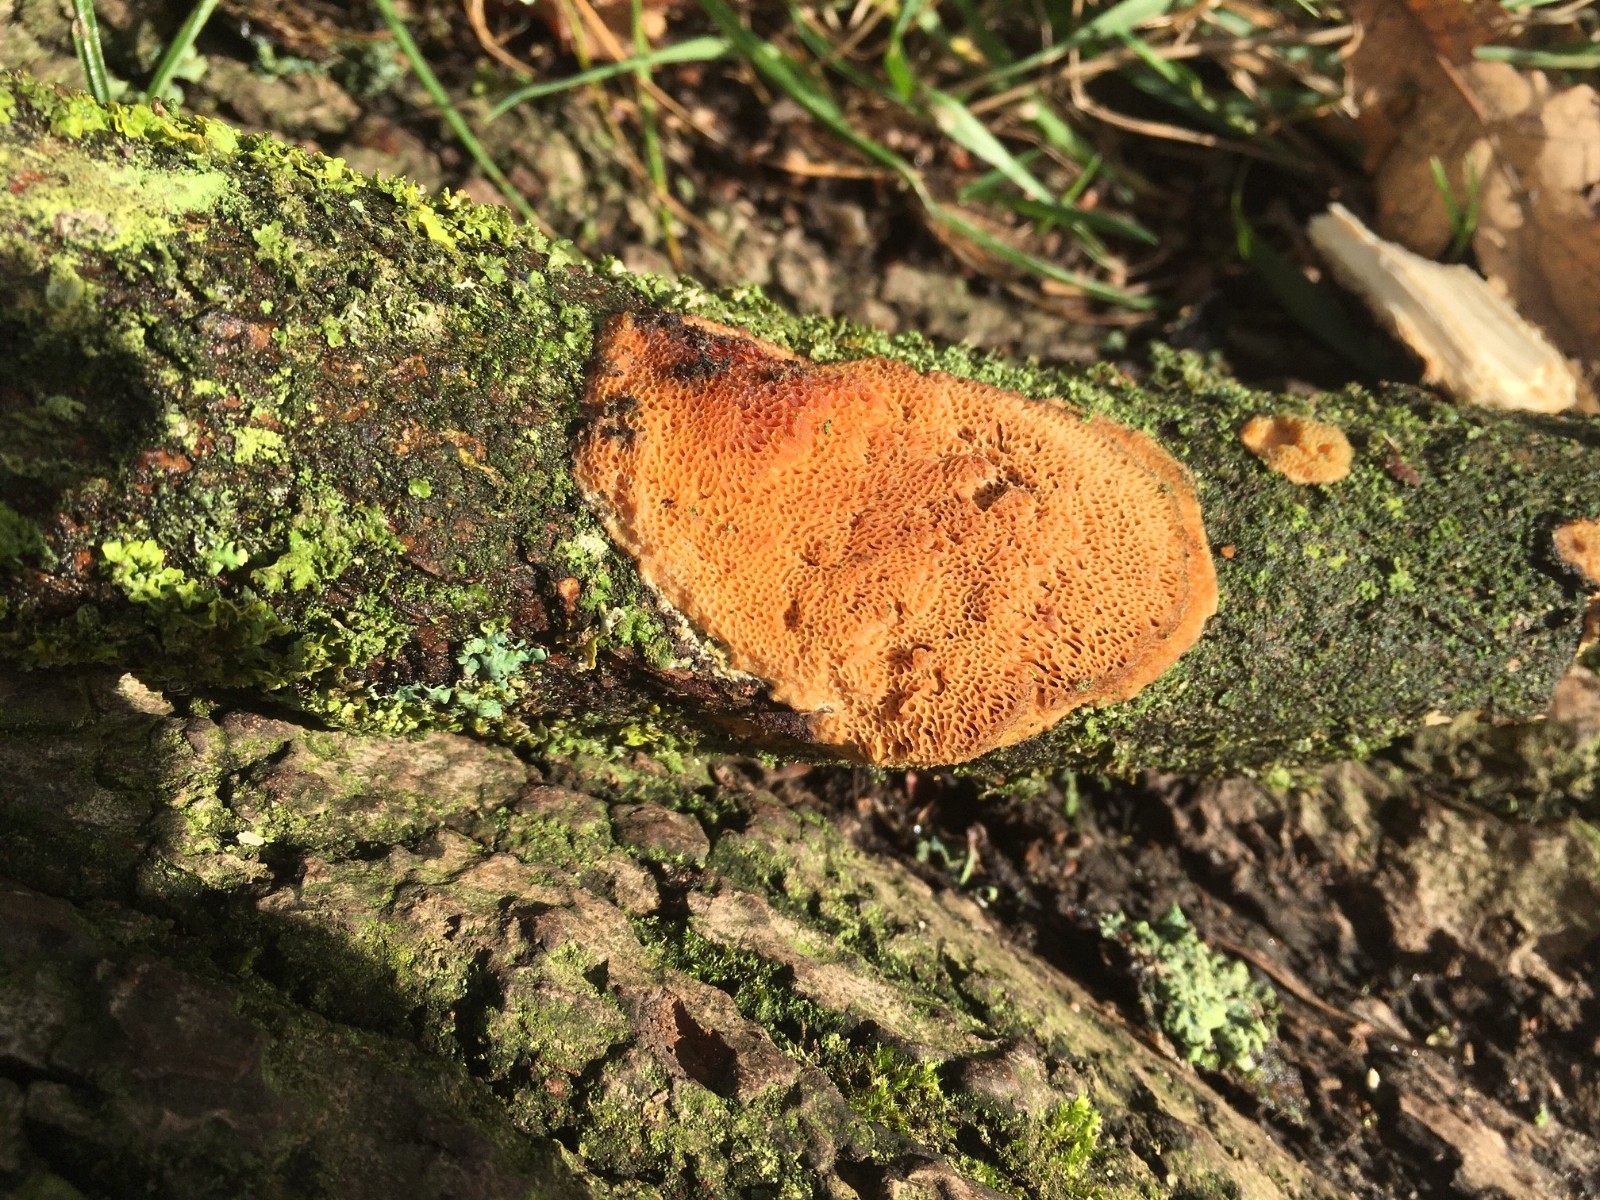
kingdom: Fungi
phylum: Basidiomycota
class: Agaricomycetes
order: Polyporales
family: Polyporaceae
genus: Szczepkamyces
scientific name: Szczepkamyces campestris
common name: hasselporesvamp
